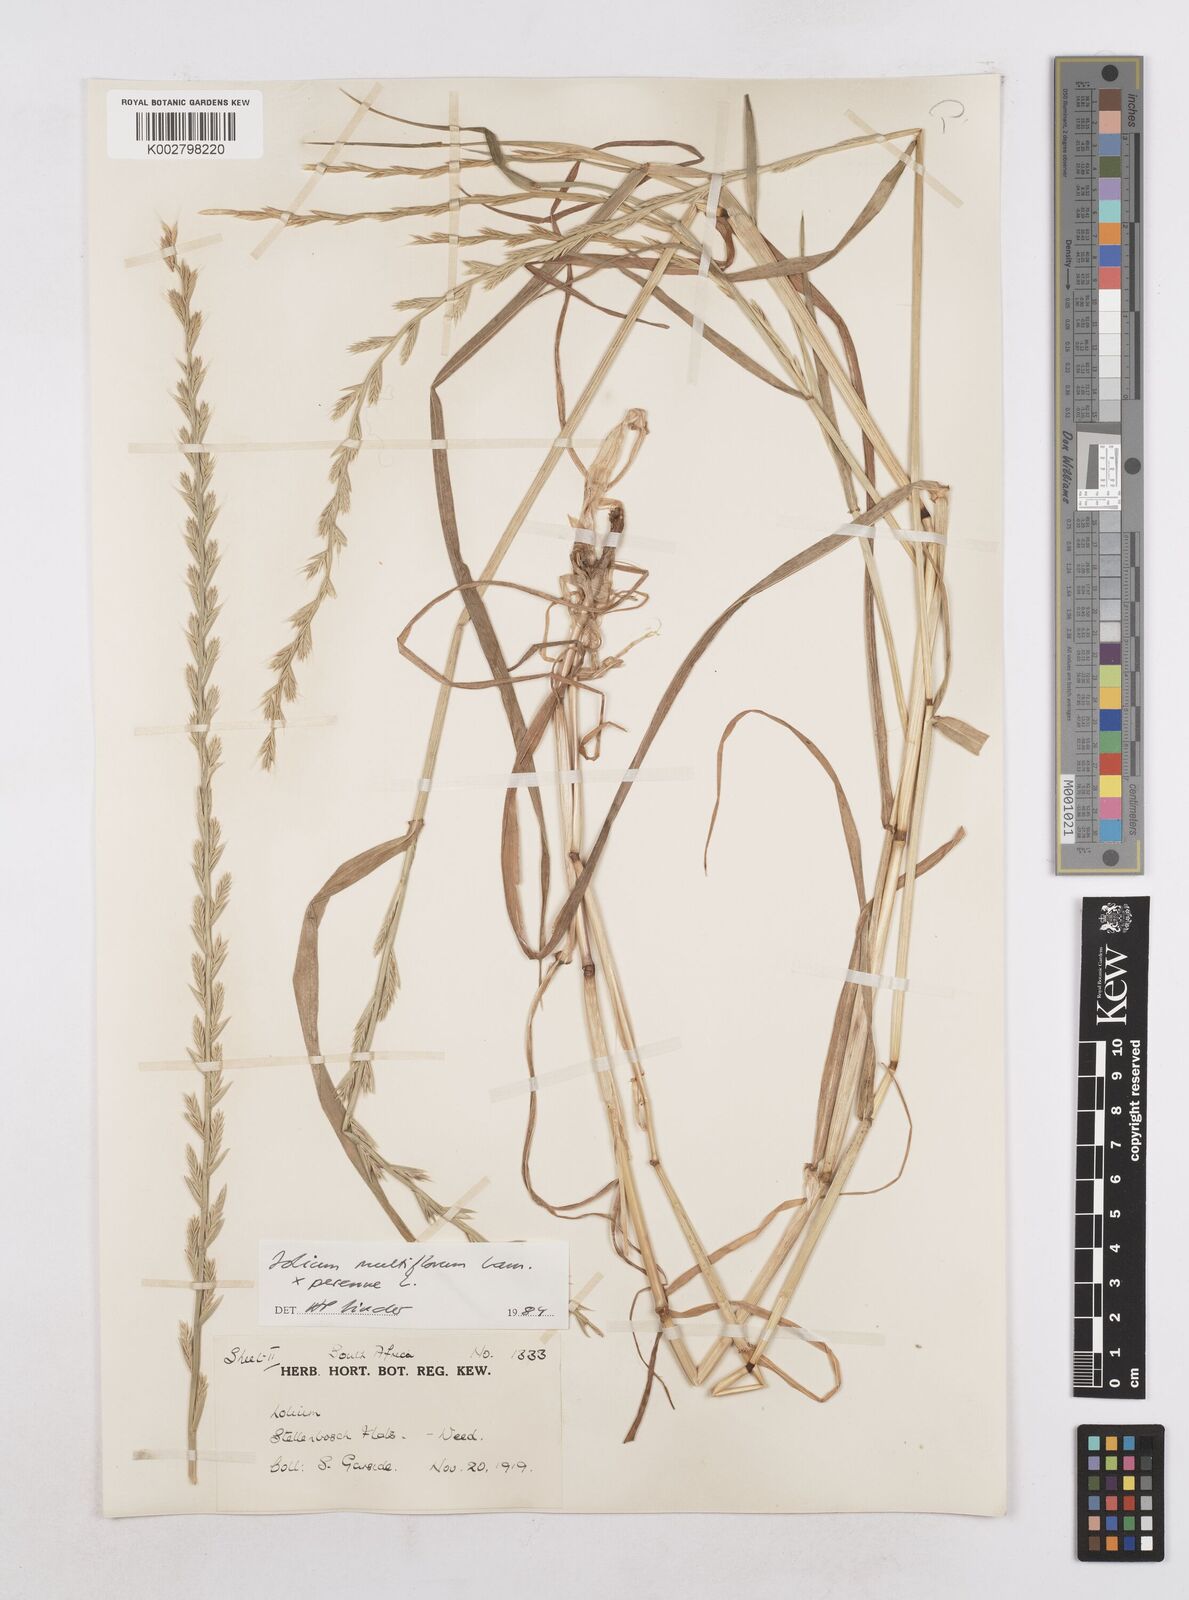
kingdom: Plantae
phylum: Tracheophyta
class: Liliopsida
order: Poales
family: Poaceae
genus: Lolium
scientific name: Lolium multiflorum
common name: Annual ryegrass
